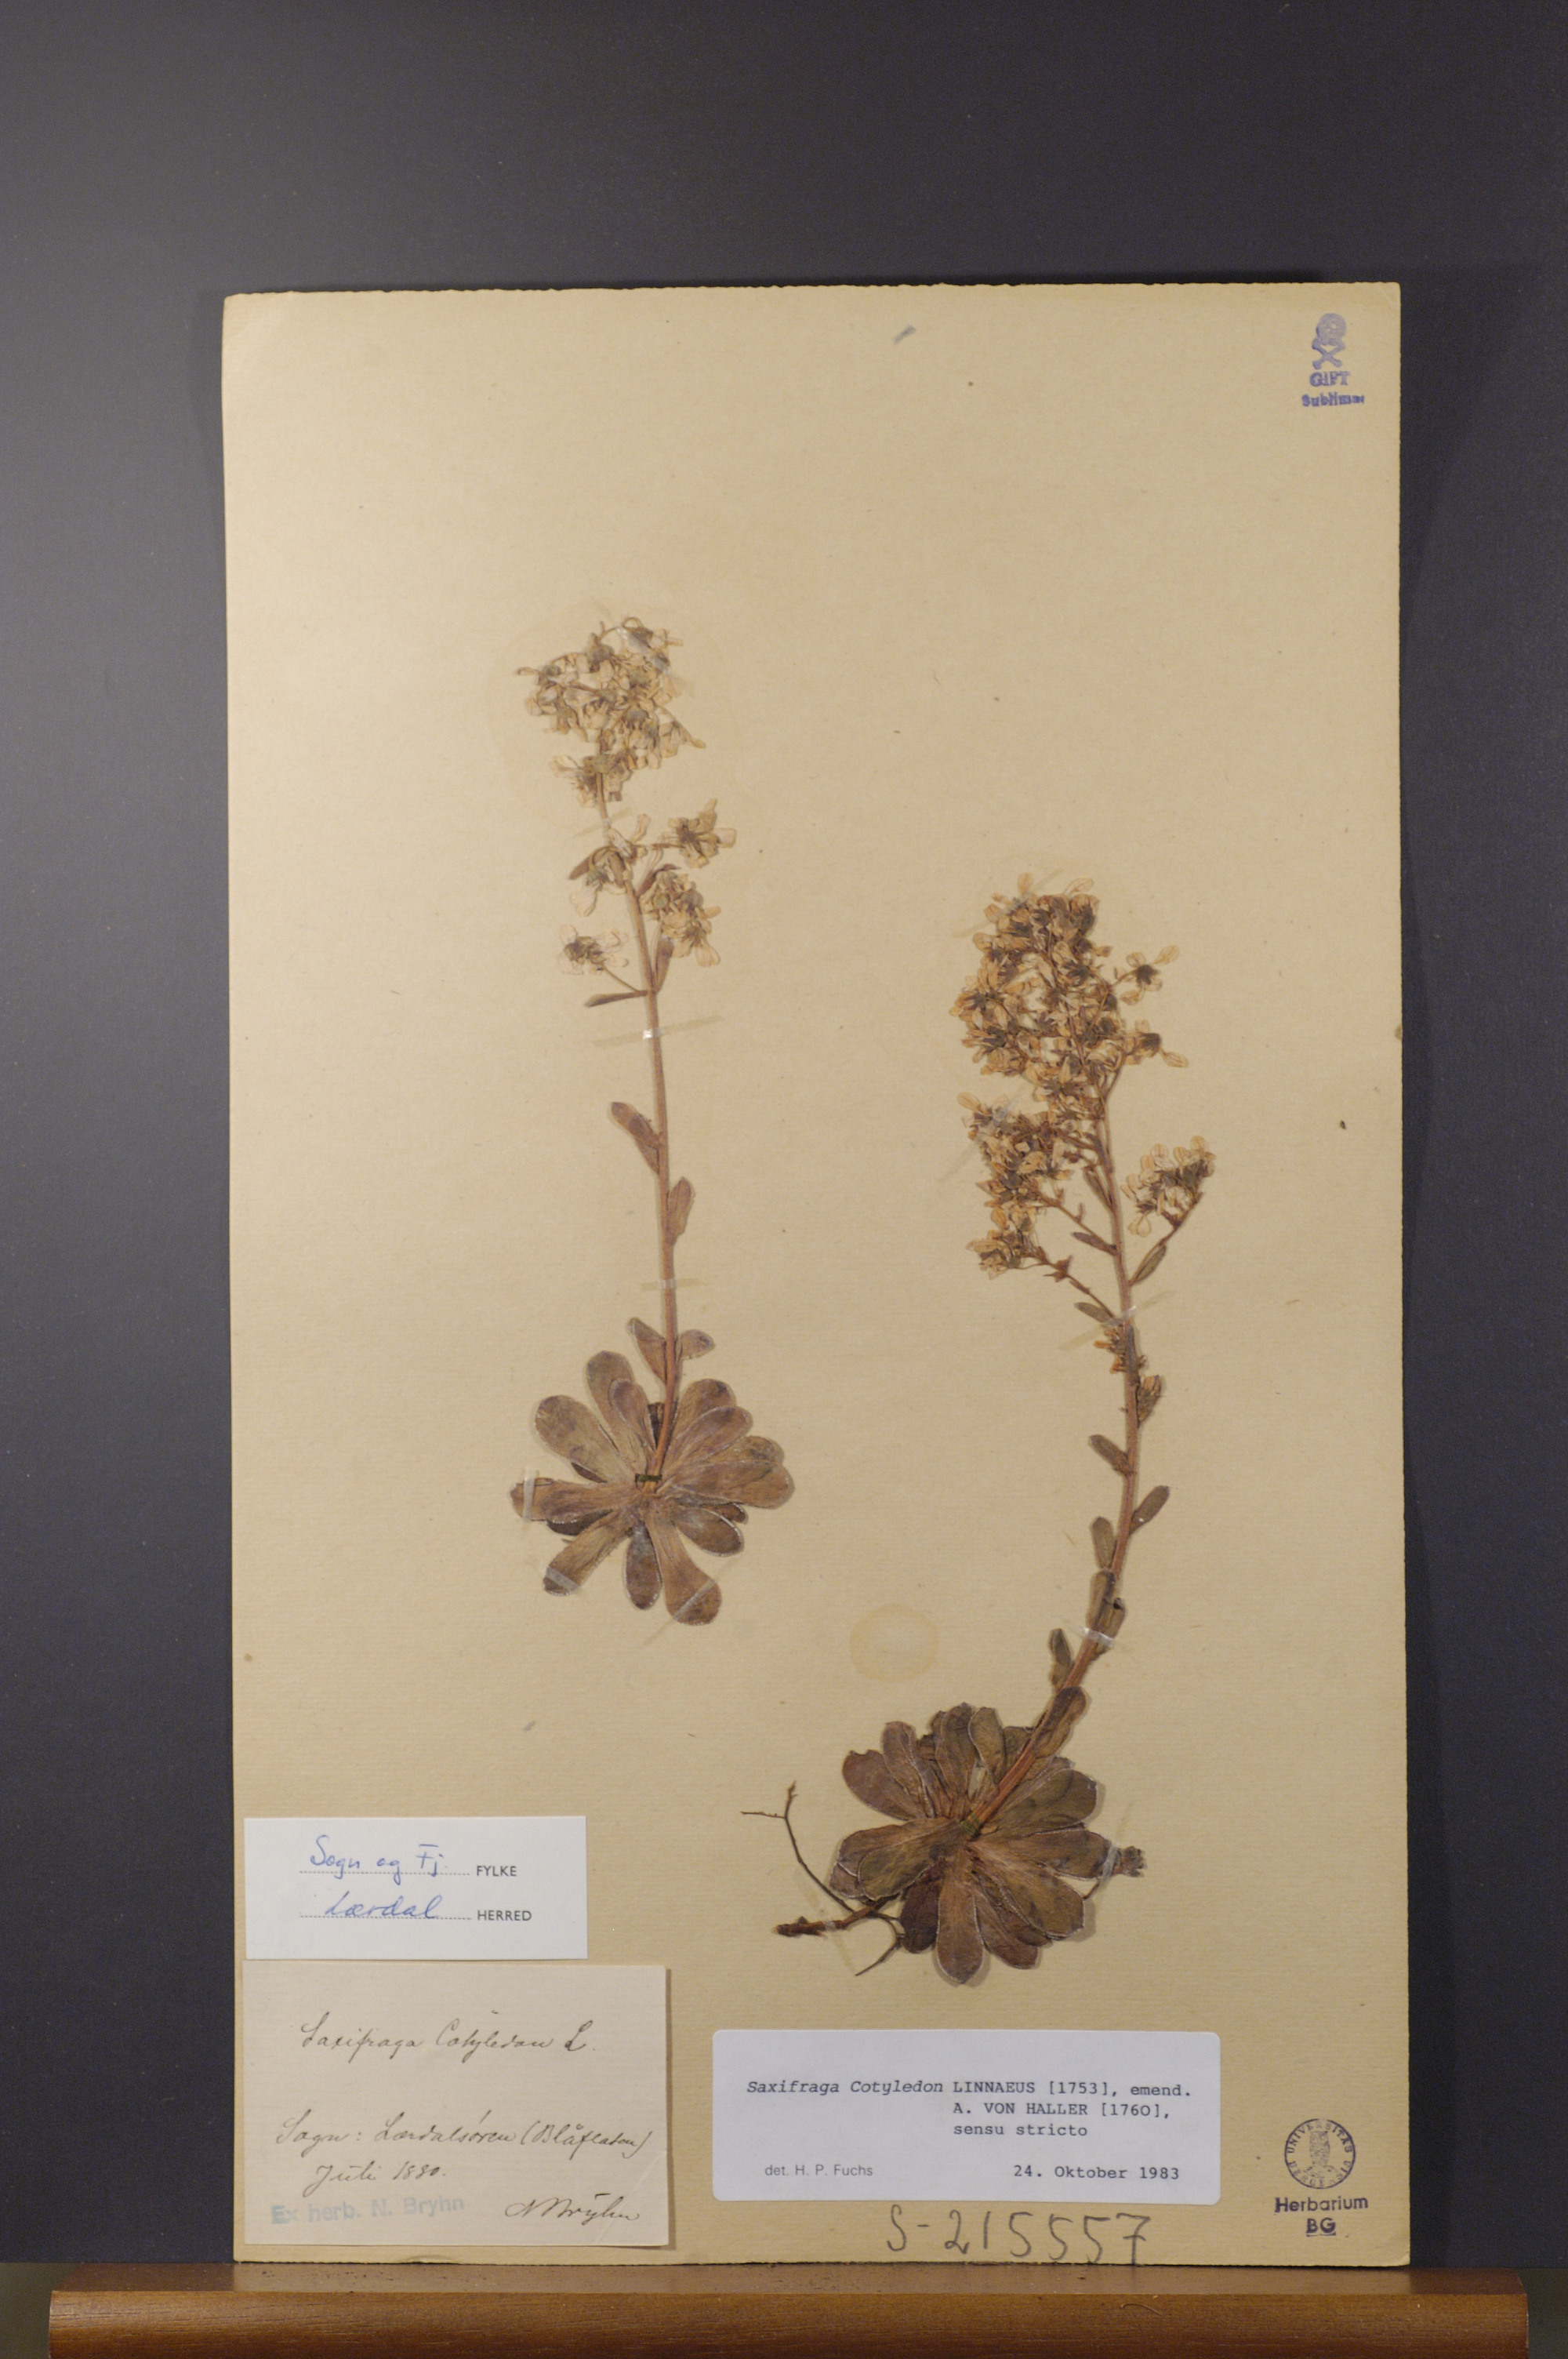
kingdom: Plantae
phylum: Tracheophyta
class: Magnoliopsida
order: Saxifragales
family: Saxifragaceae
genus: Saxifraga
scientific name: Saxifraga cotyledon
